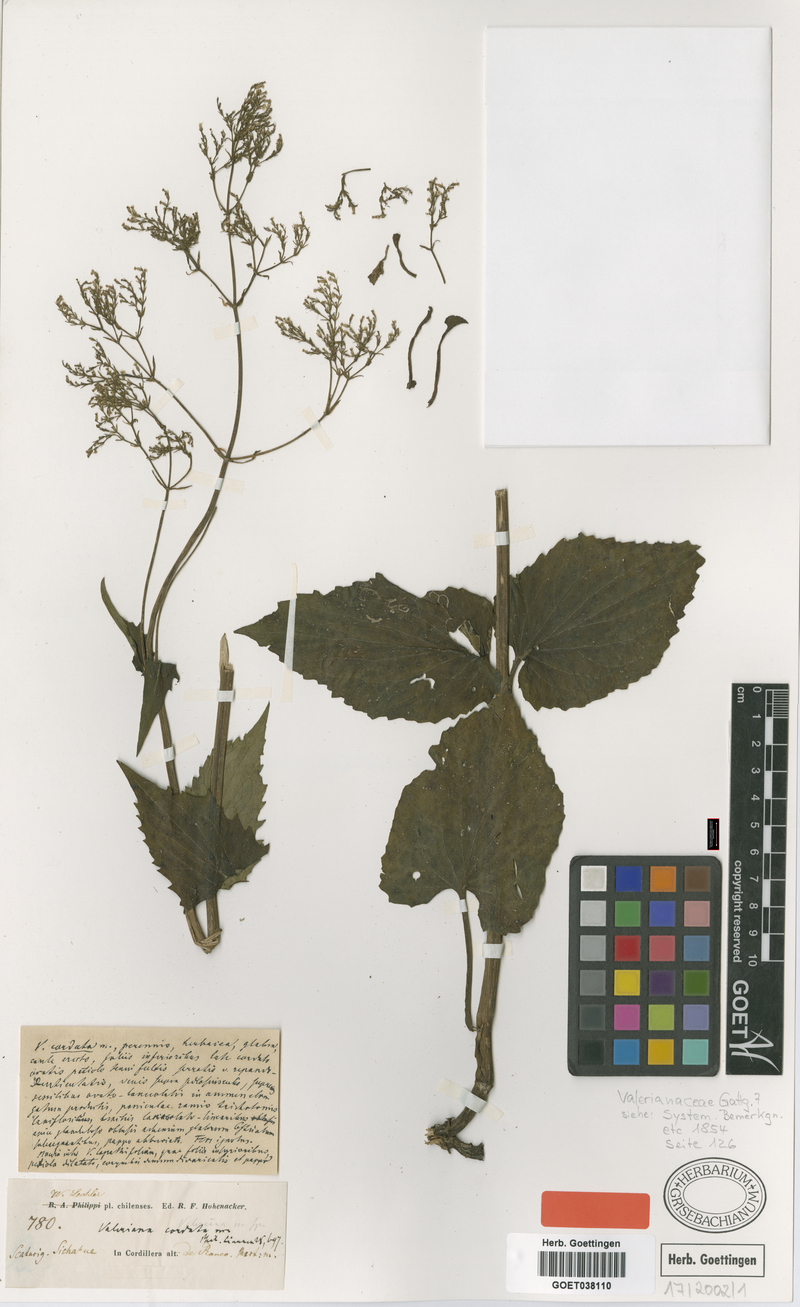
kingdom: Plantae
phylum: Tracheophyta
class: Magnoliopsida
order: Dipsacales
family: Caprifoliaceae
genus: Valeriana
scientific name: Valeriana lapathifolia
